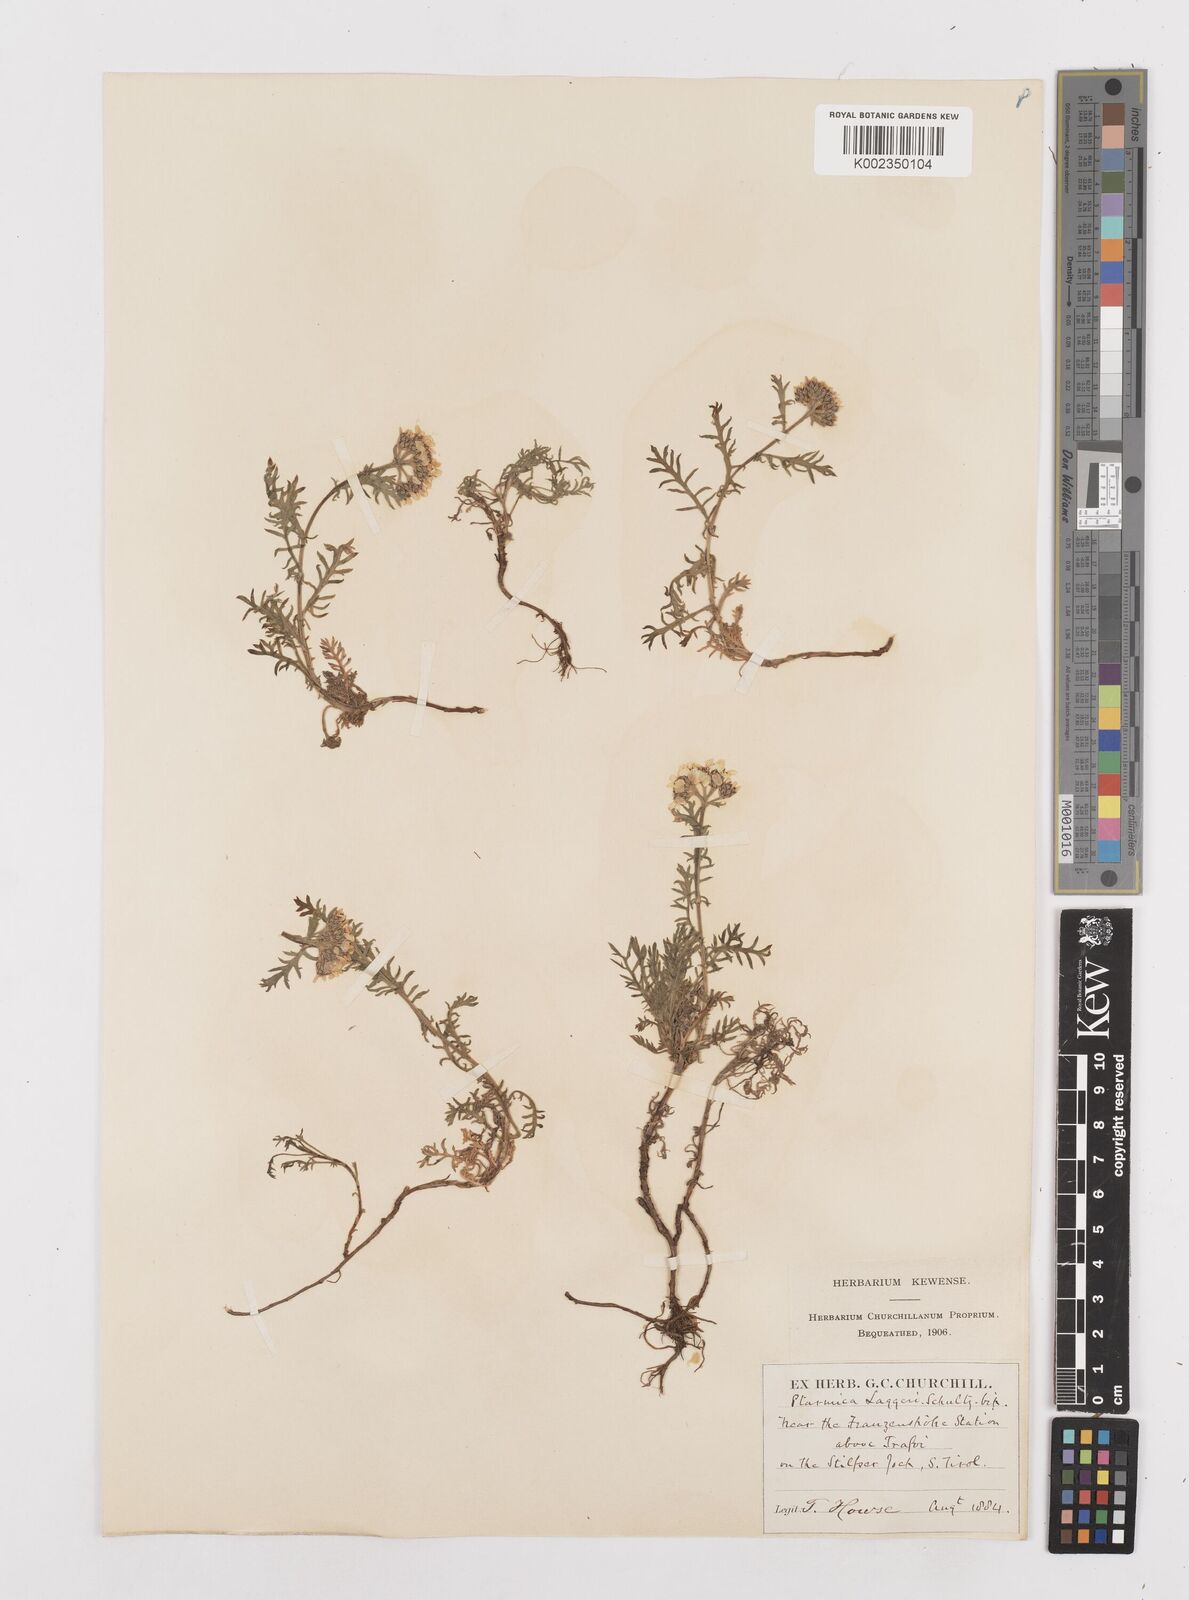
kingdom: Plantae
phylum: Tracheophyta
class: Magnoliopsida
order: Asterales
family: Asteraceae
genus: Achillea
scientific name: Achillea atrata
